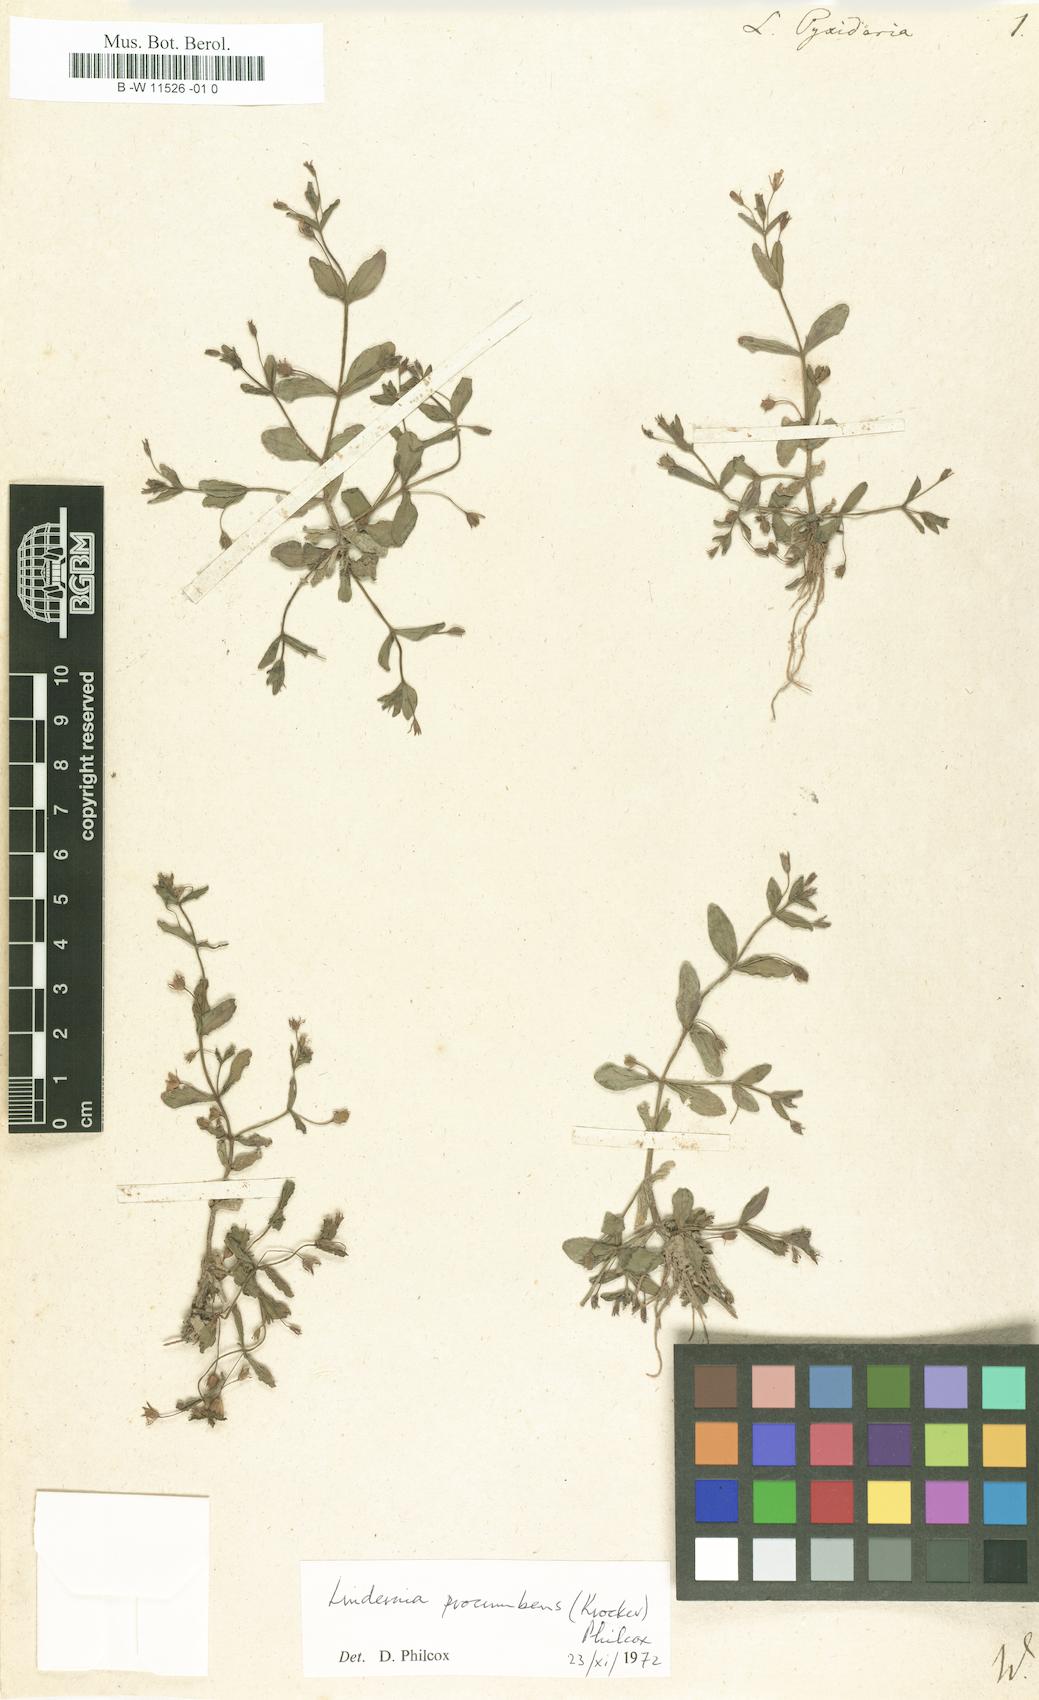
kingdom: Plantae
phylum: Tracheophyta
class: Magnoliopsida
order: Lamiales
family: Linderniaceae
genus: Lindernia
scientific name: Lindernia
